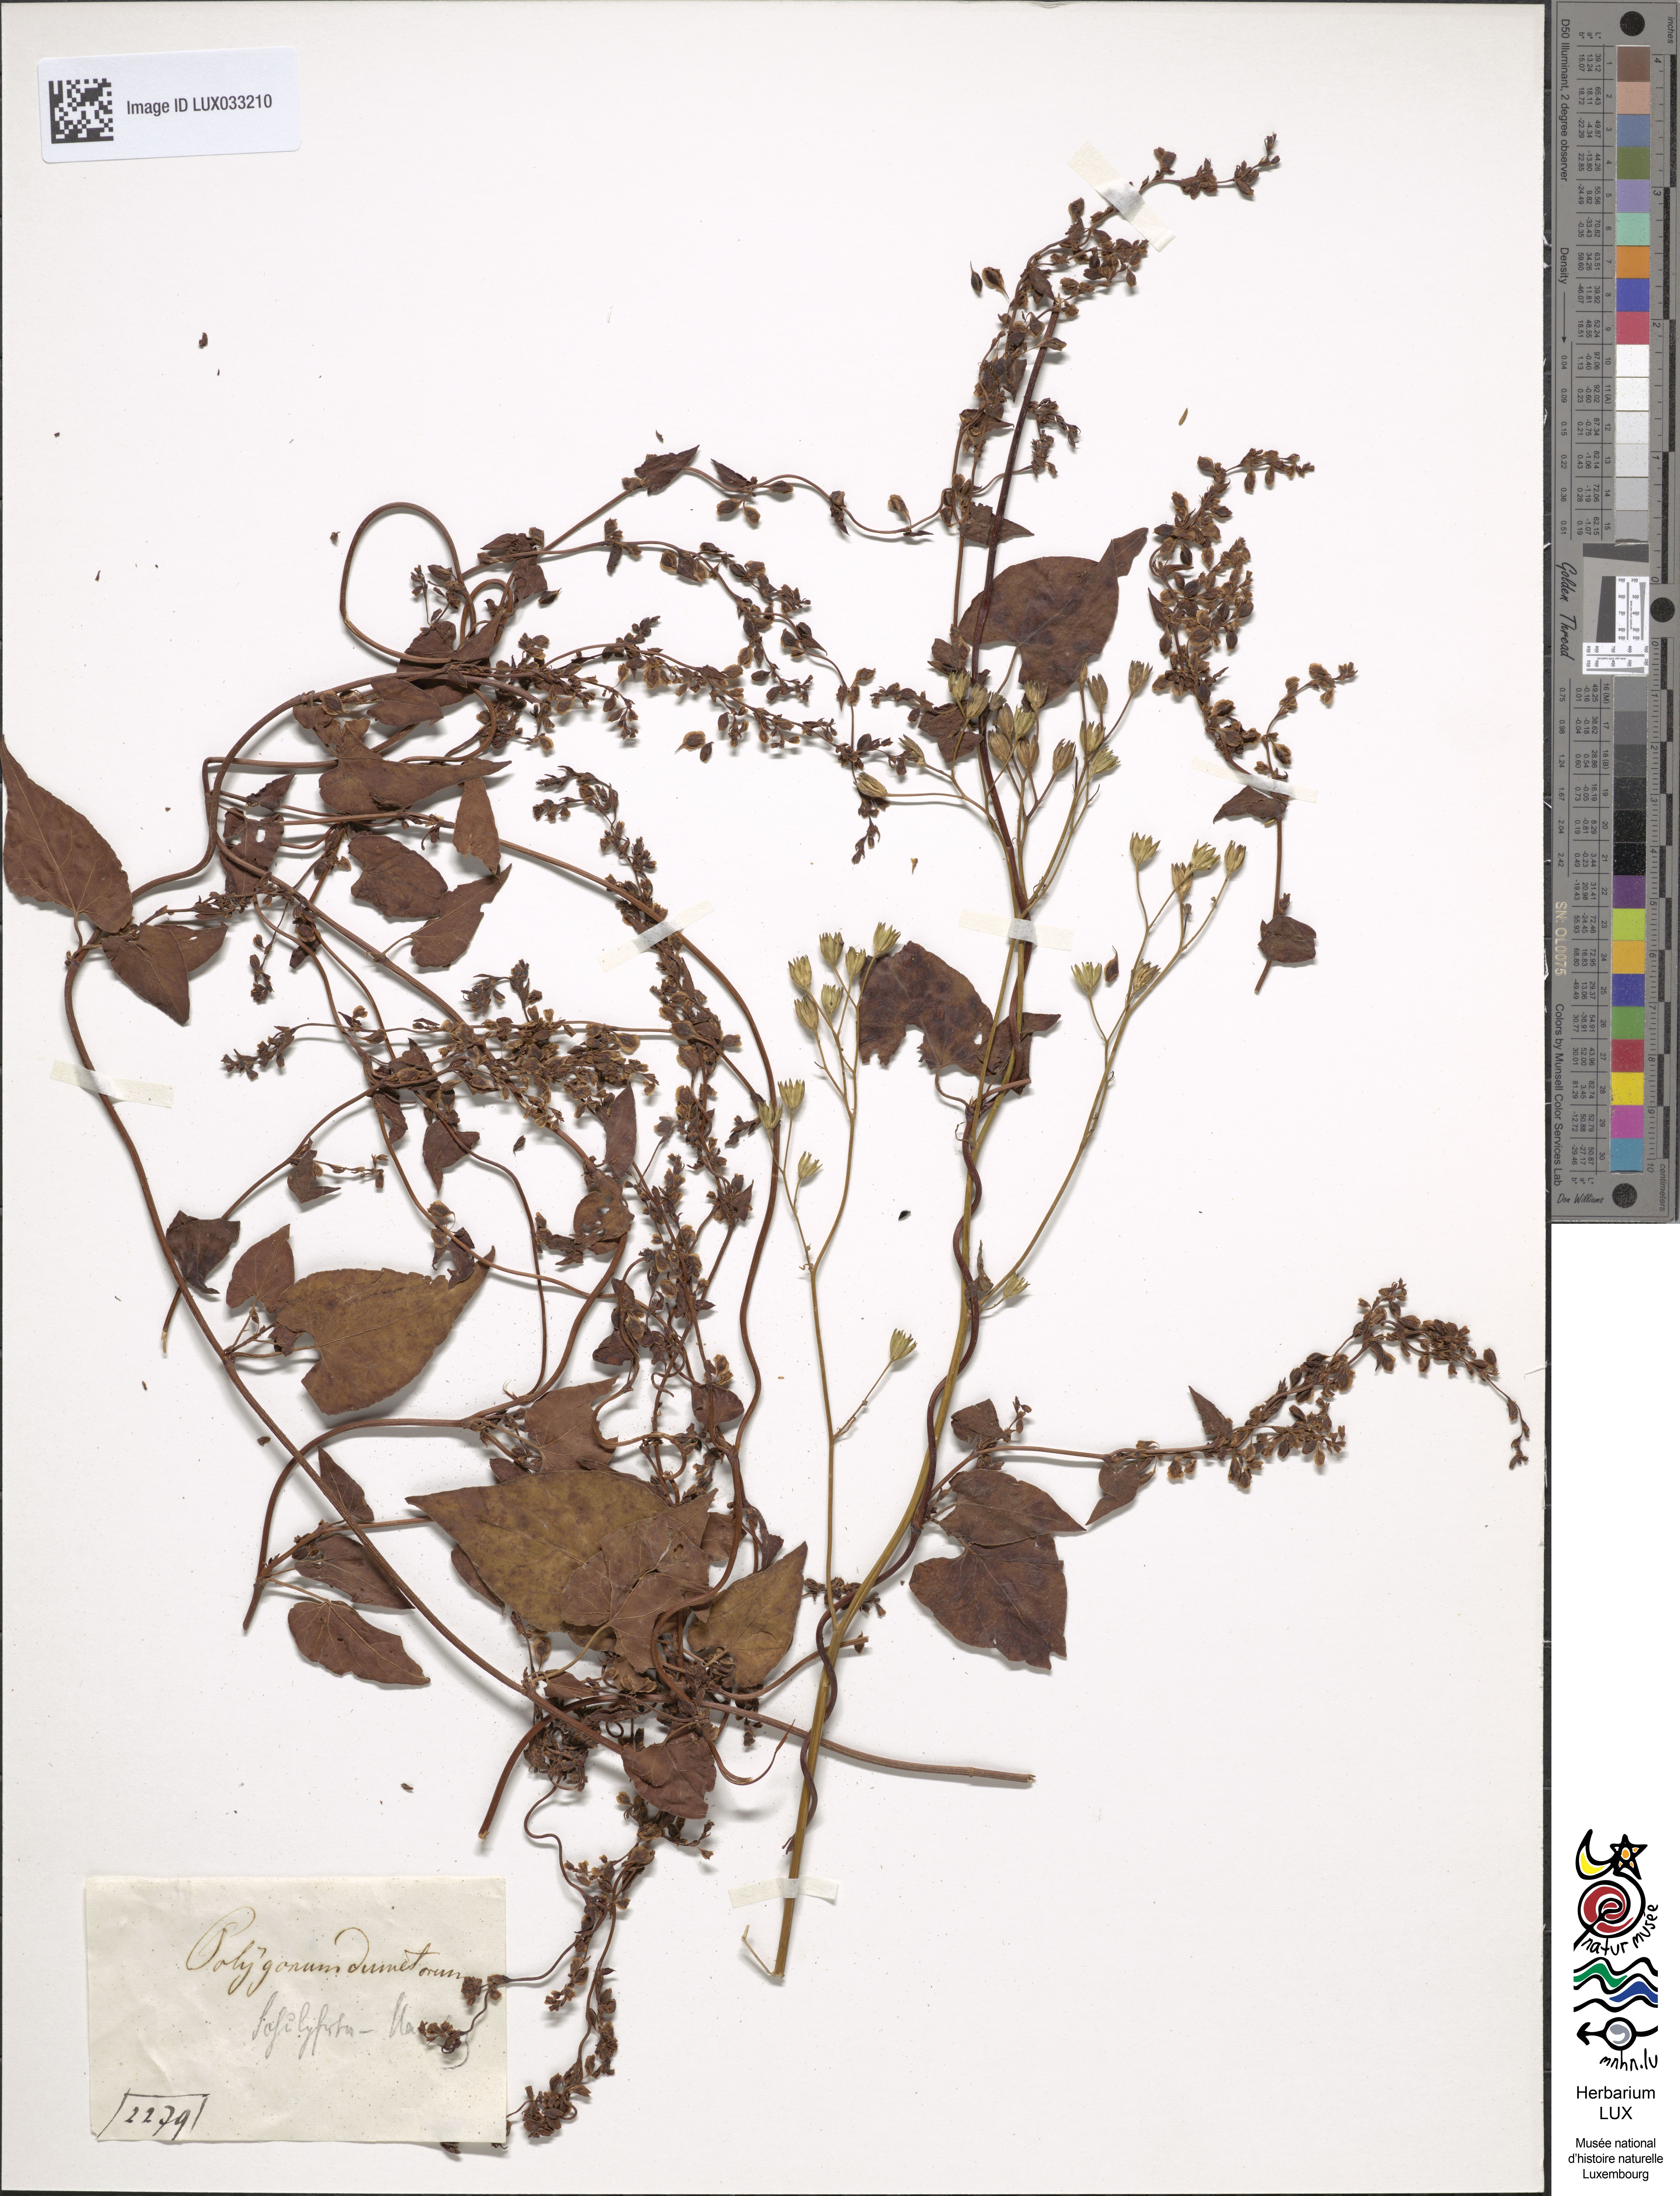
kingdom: Plantae
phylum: Tracheophyta
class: Magnoliopsida
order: Caryophyllales
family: Polygonaceae
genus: Fallopia
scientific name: Fallopia dumetorum
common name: Copse-bindweed
